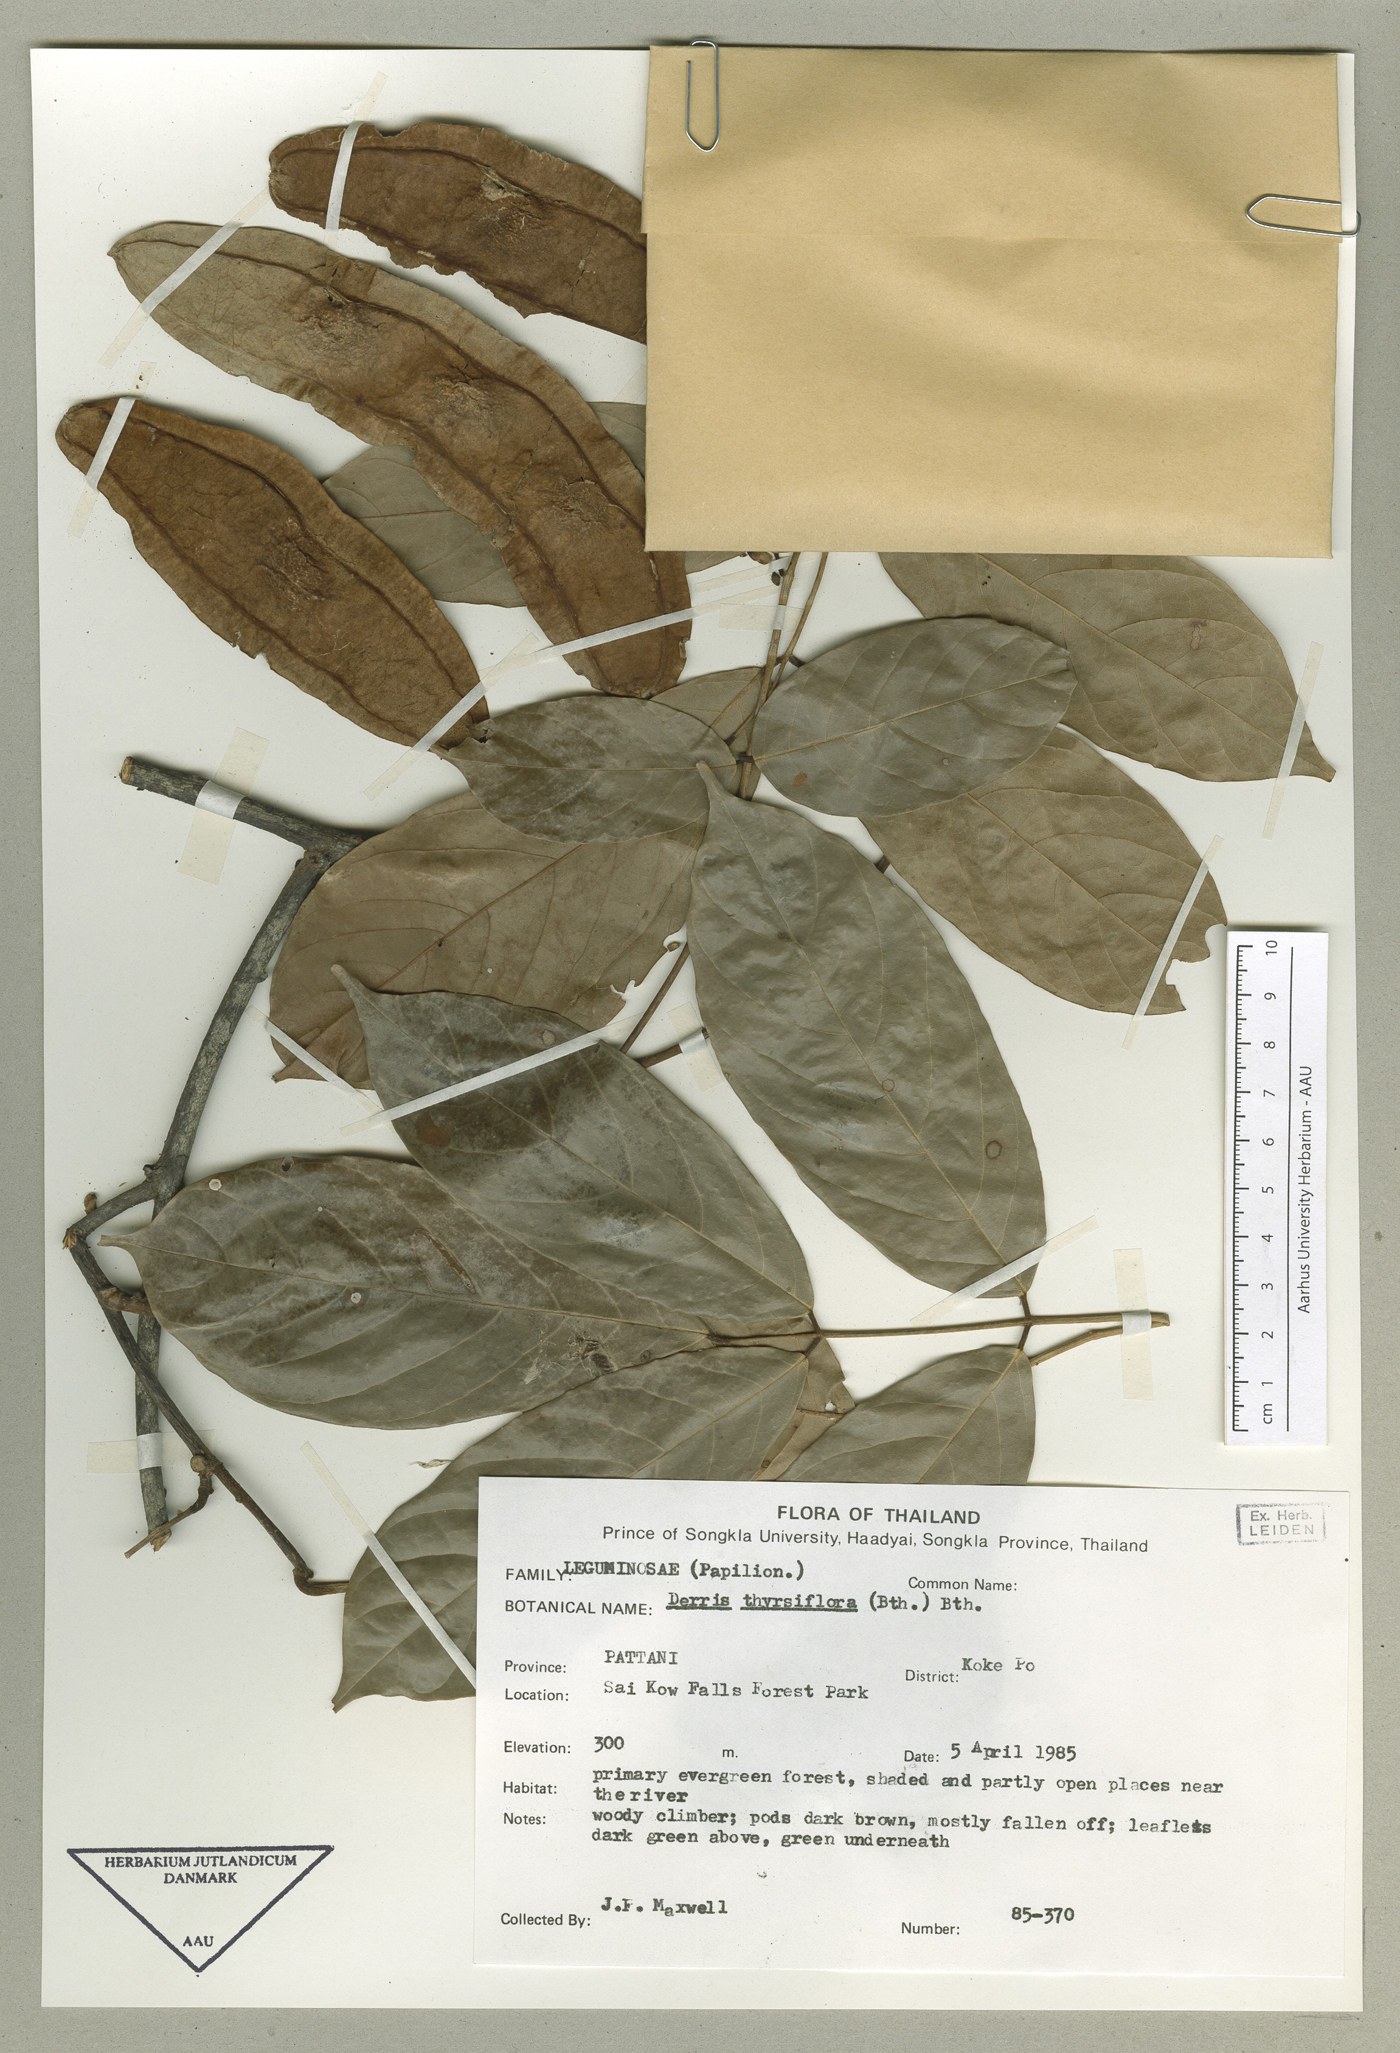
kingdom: Plantae
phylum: Tracheophyta
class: Magnoliopsida
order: Fabales
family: Fabaceae
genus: Aganope
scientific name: Aganope thyrsiflora
